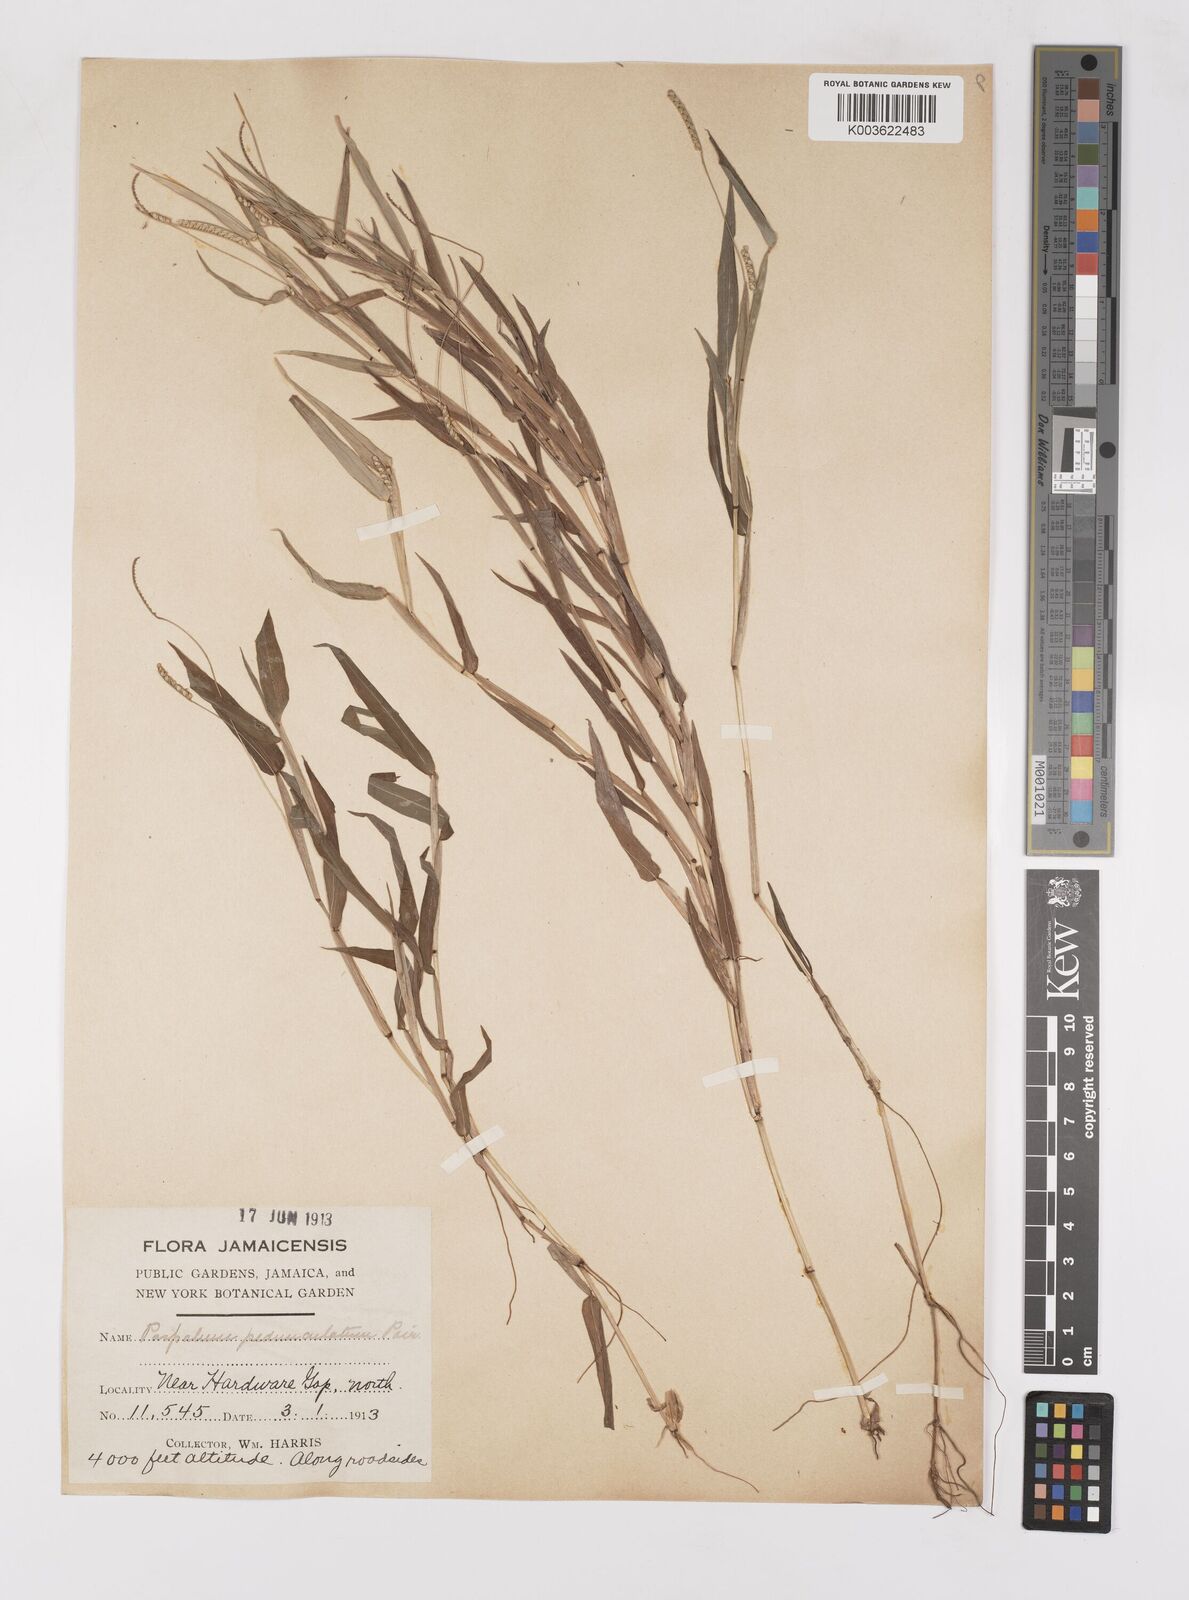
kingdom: Plantae
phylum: Tracheophyta
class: Liliopsida
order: Poales
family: Poaceae
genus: Paspalum
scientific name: Paspalum decumbens
